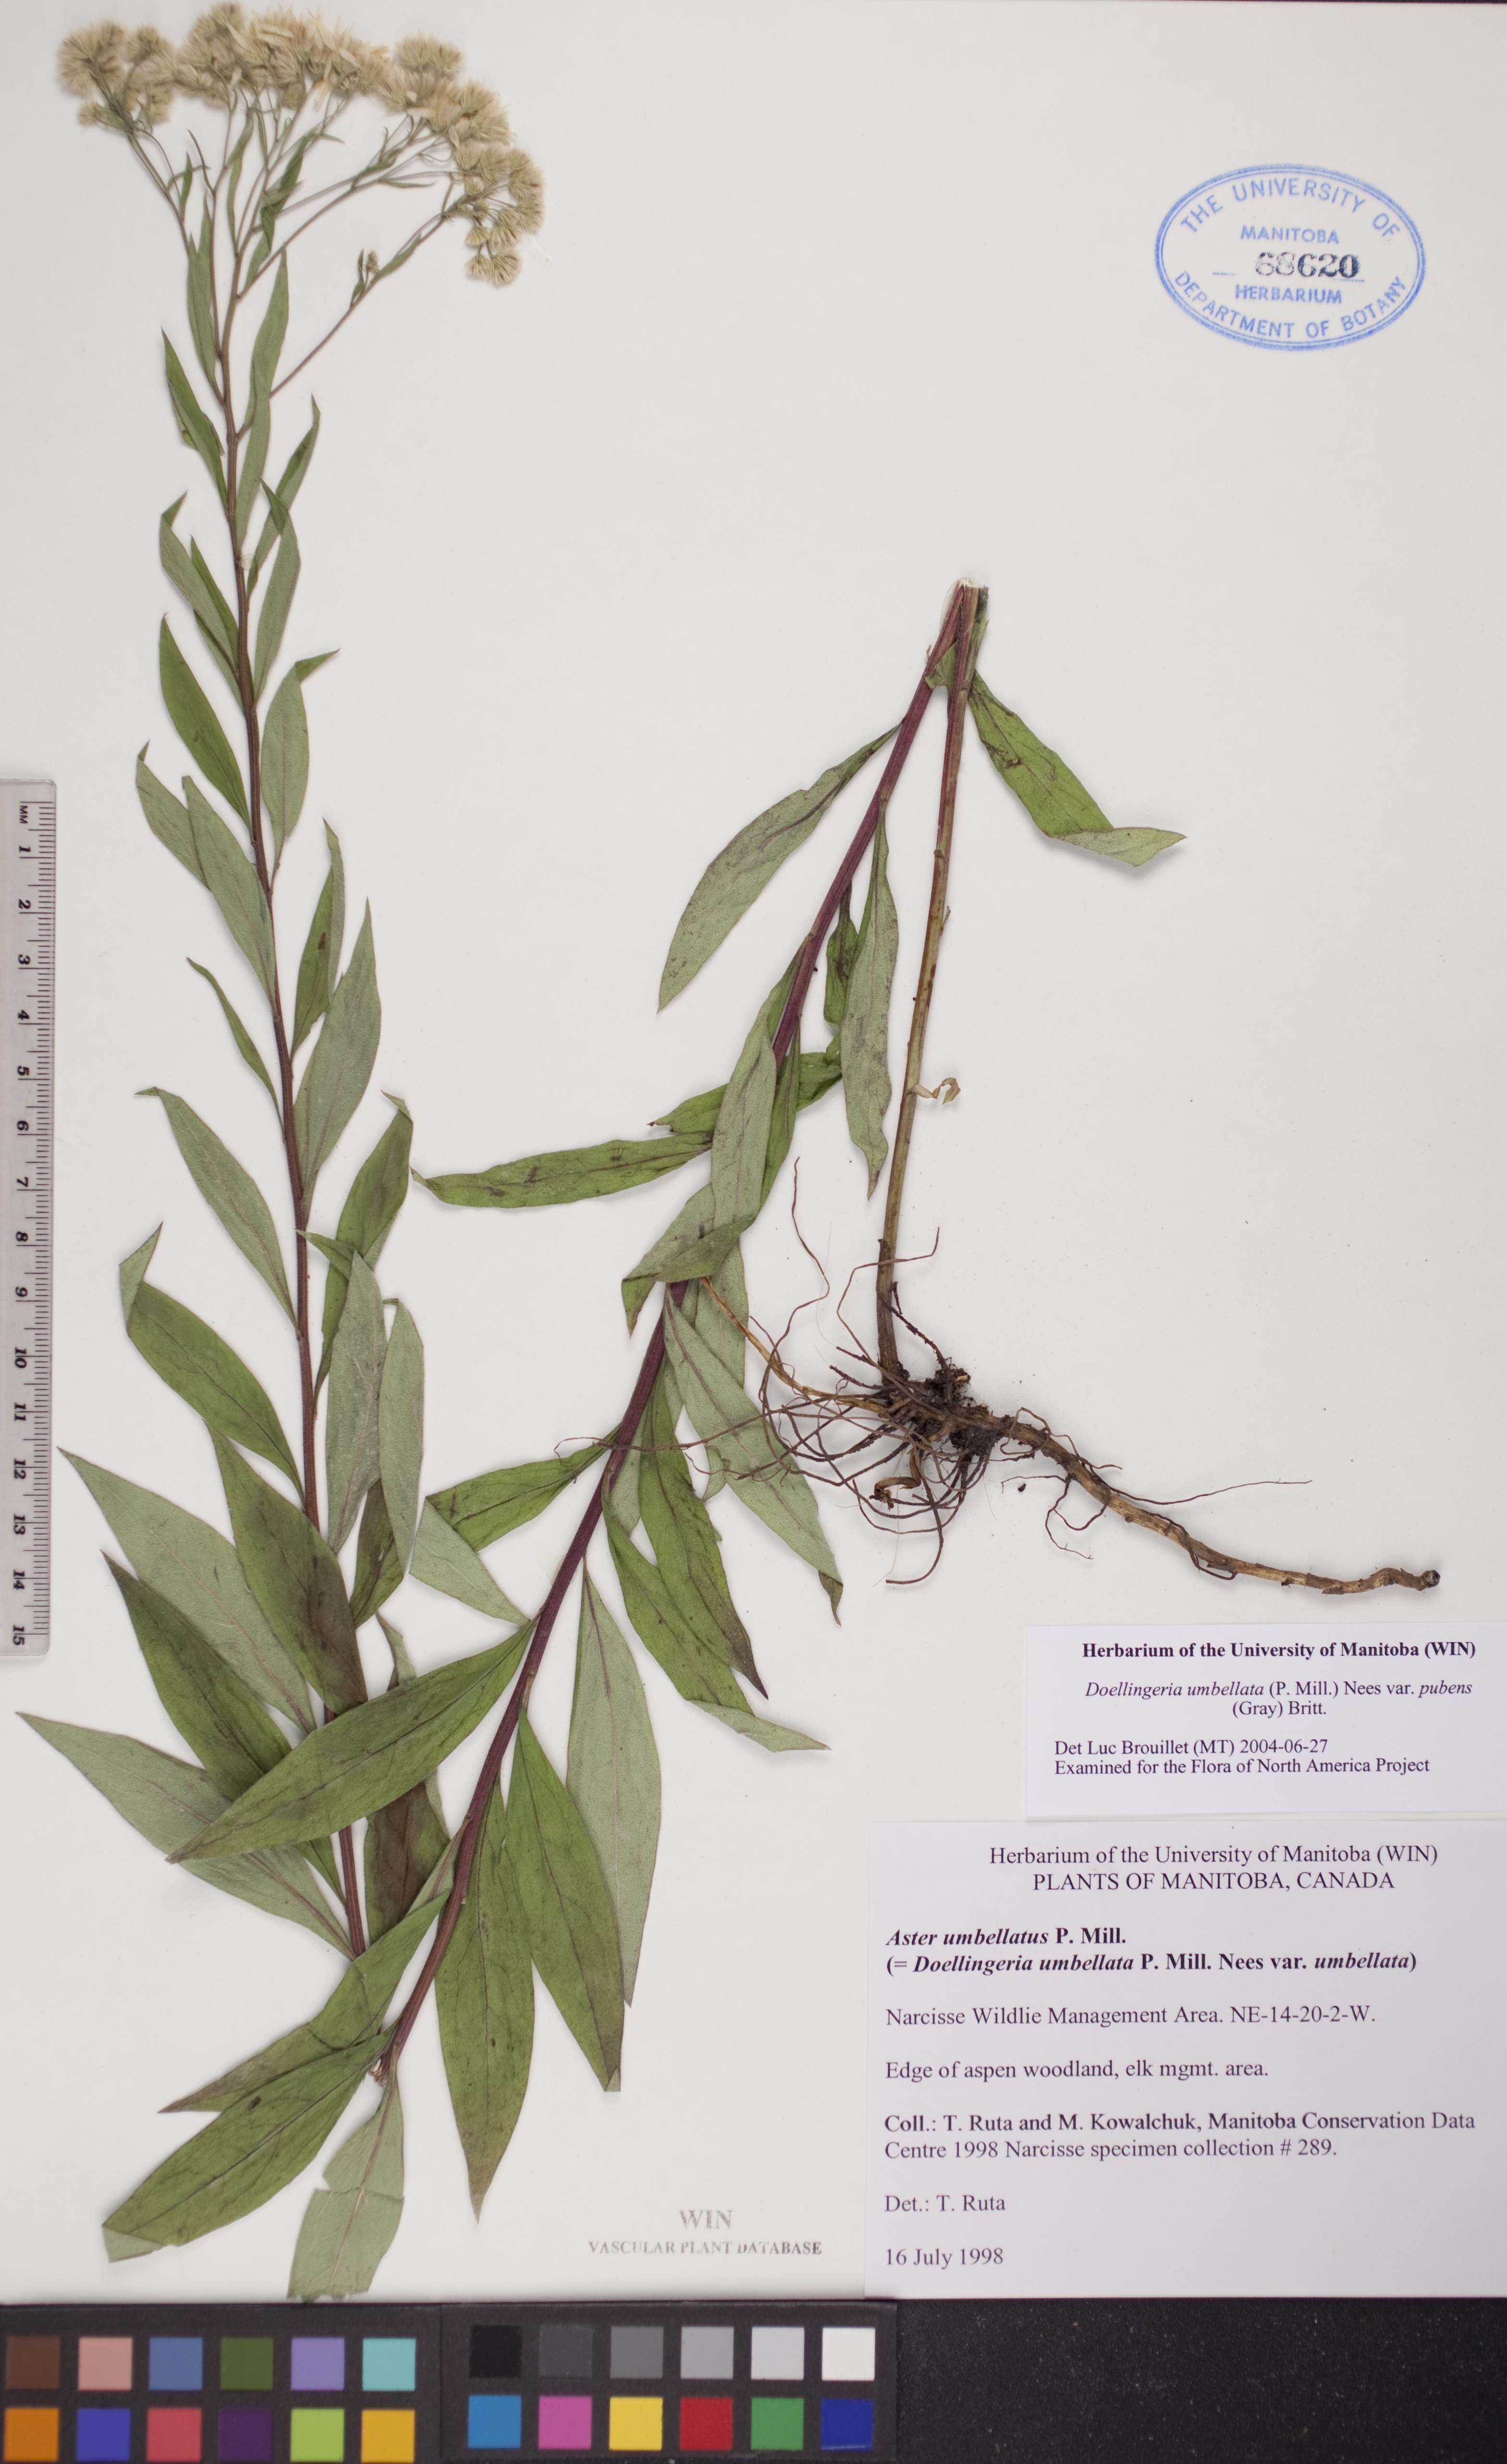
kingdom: Plantae
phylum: Tracheophyta
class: Magnoliopsida
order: Asterales
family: Asteraceae
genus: Doellingeria
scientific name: Doellingeria umbellata
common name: Flat-top white aster
